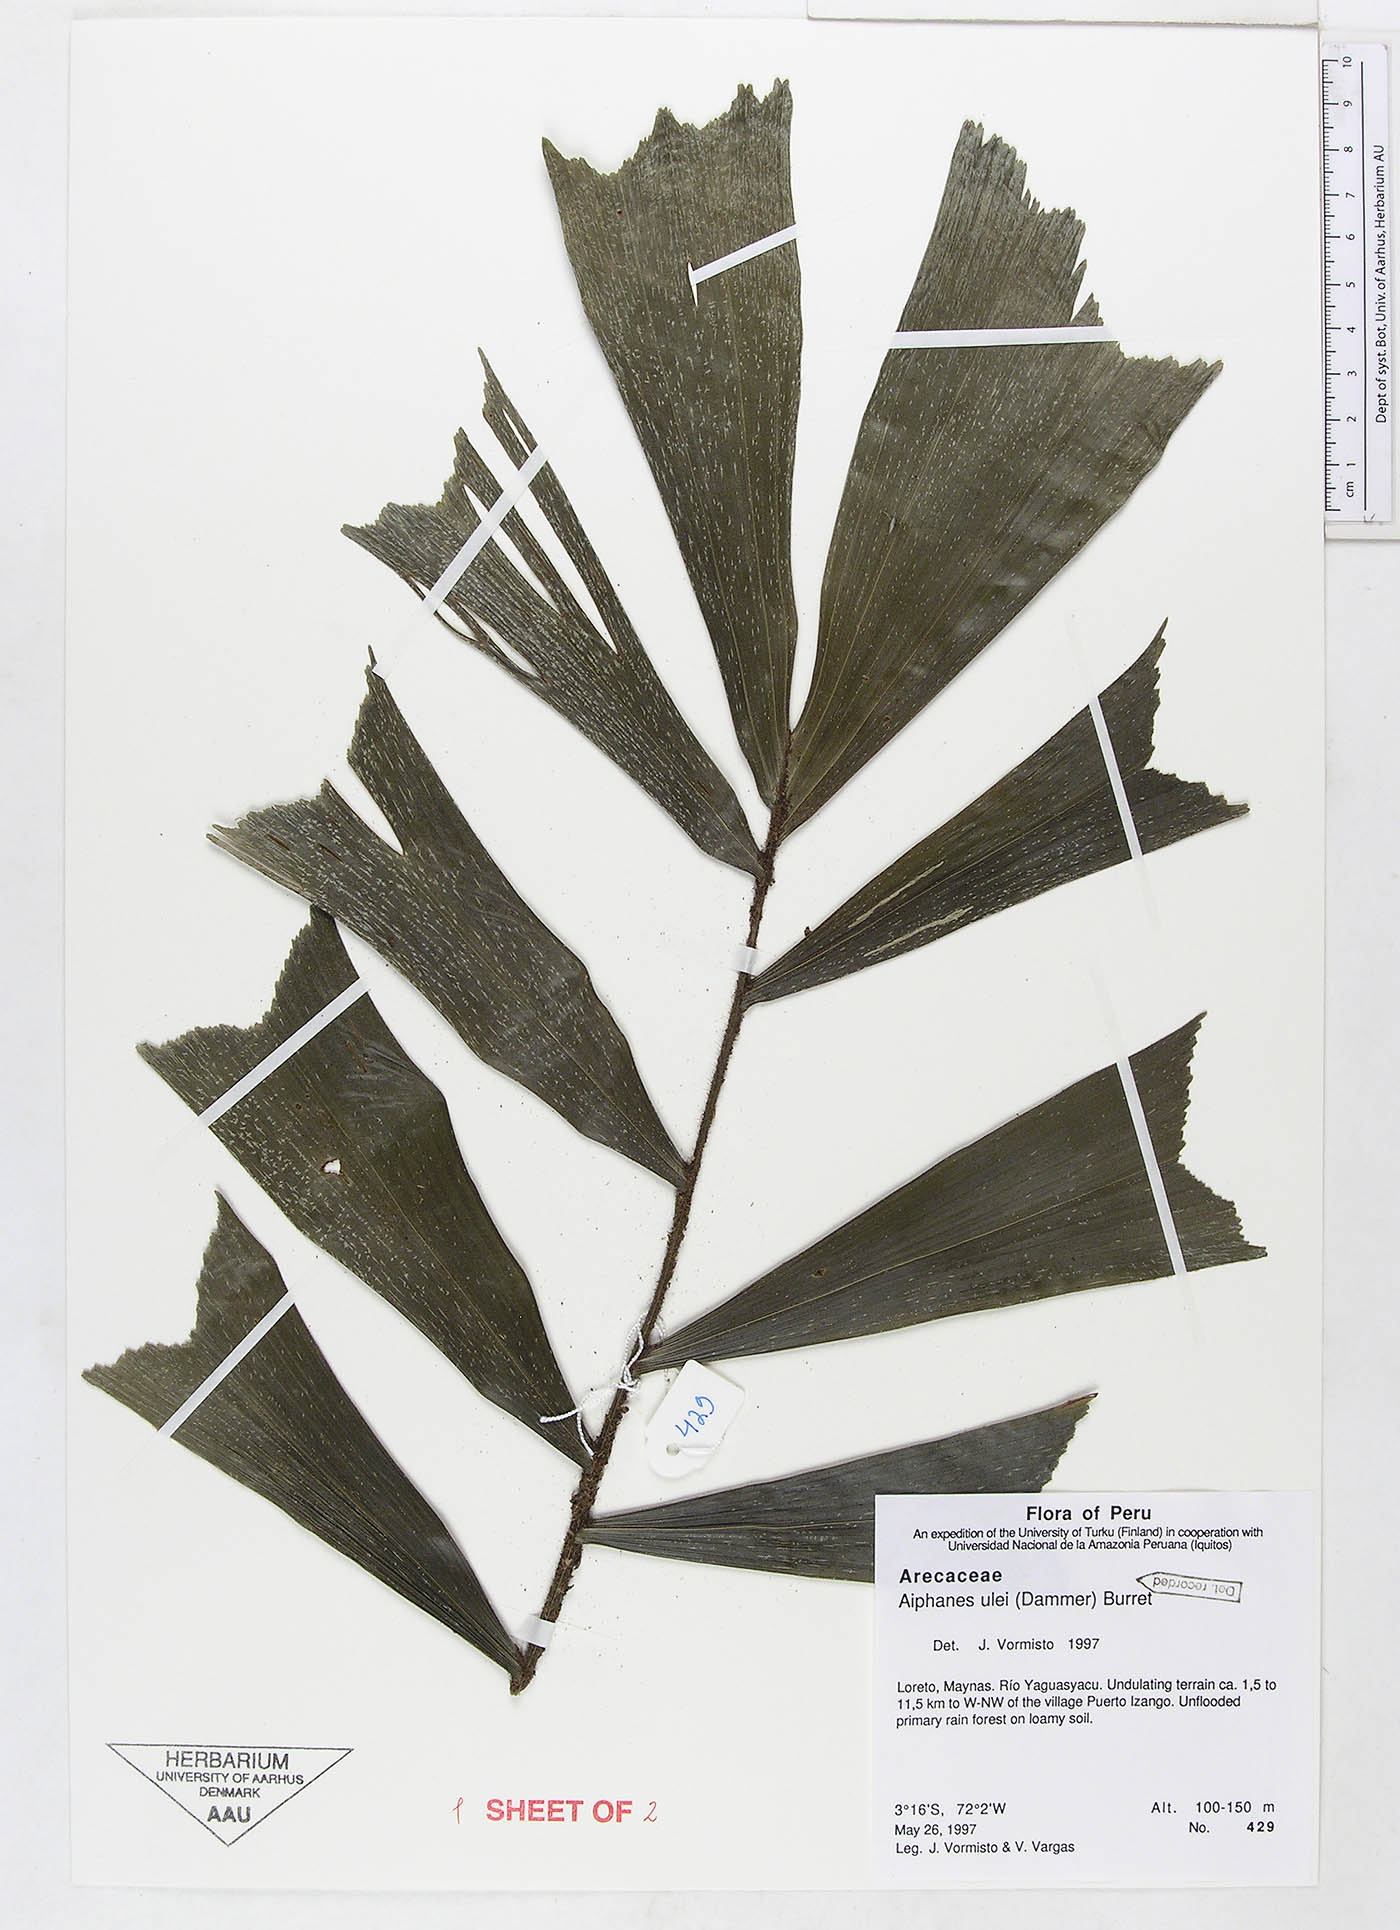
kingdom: Plantae
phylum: Tracheophyta
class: Liliopsida
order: Arecales
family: Arecaceae
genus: Aiphanes
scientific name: Aiphanes ulei
